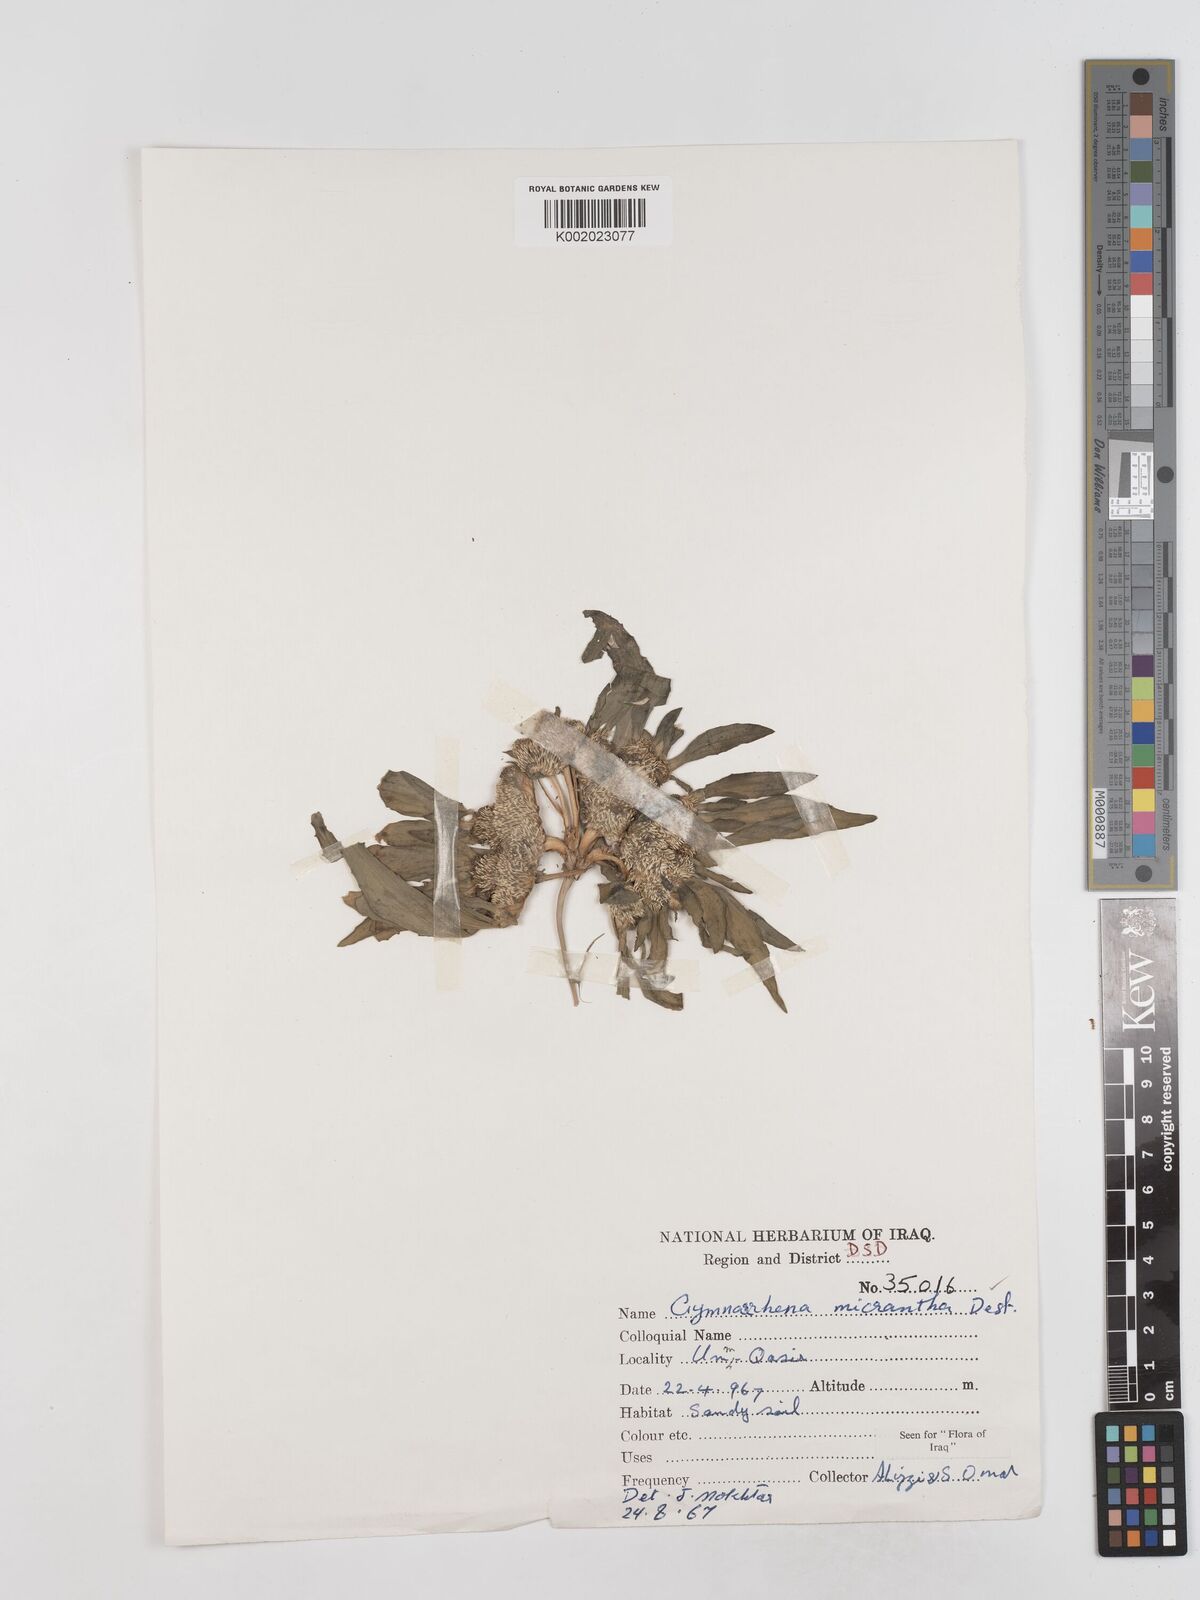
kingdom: Plantae
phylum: Tracheophyta
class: Magnoliopsida
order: Asterales
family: Asteraceae
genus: Gymnarrhena
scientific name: Gymnarrhena micrantha
